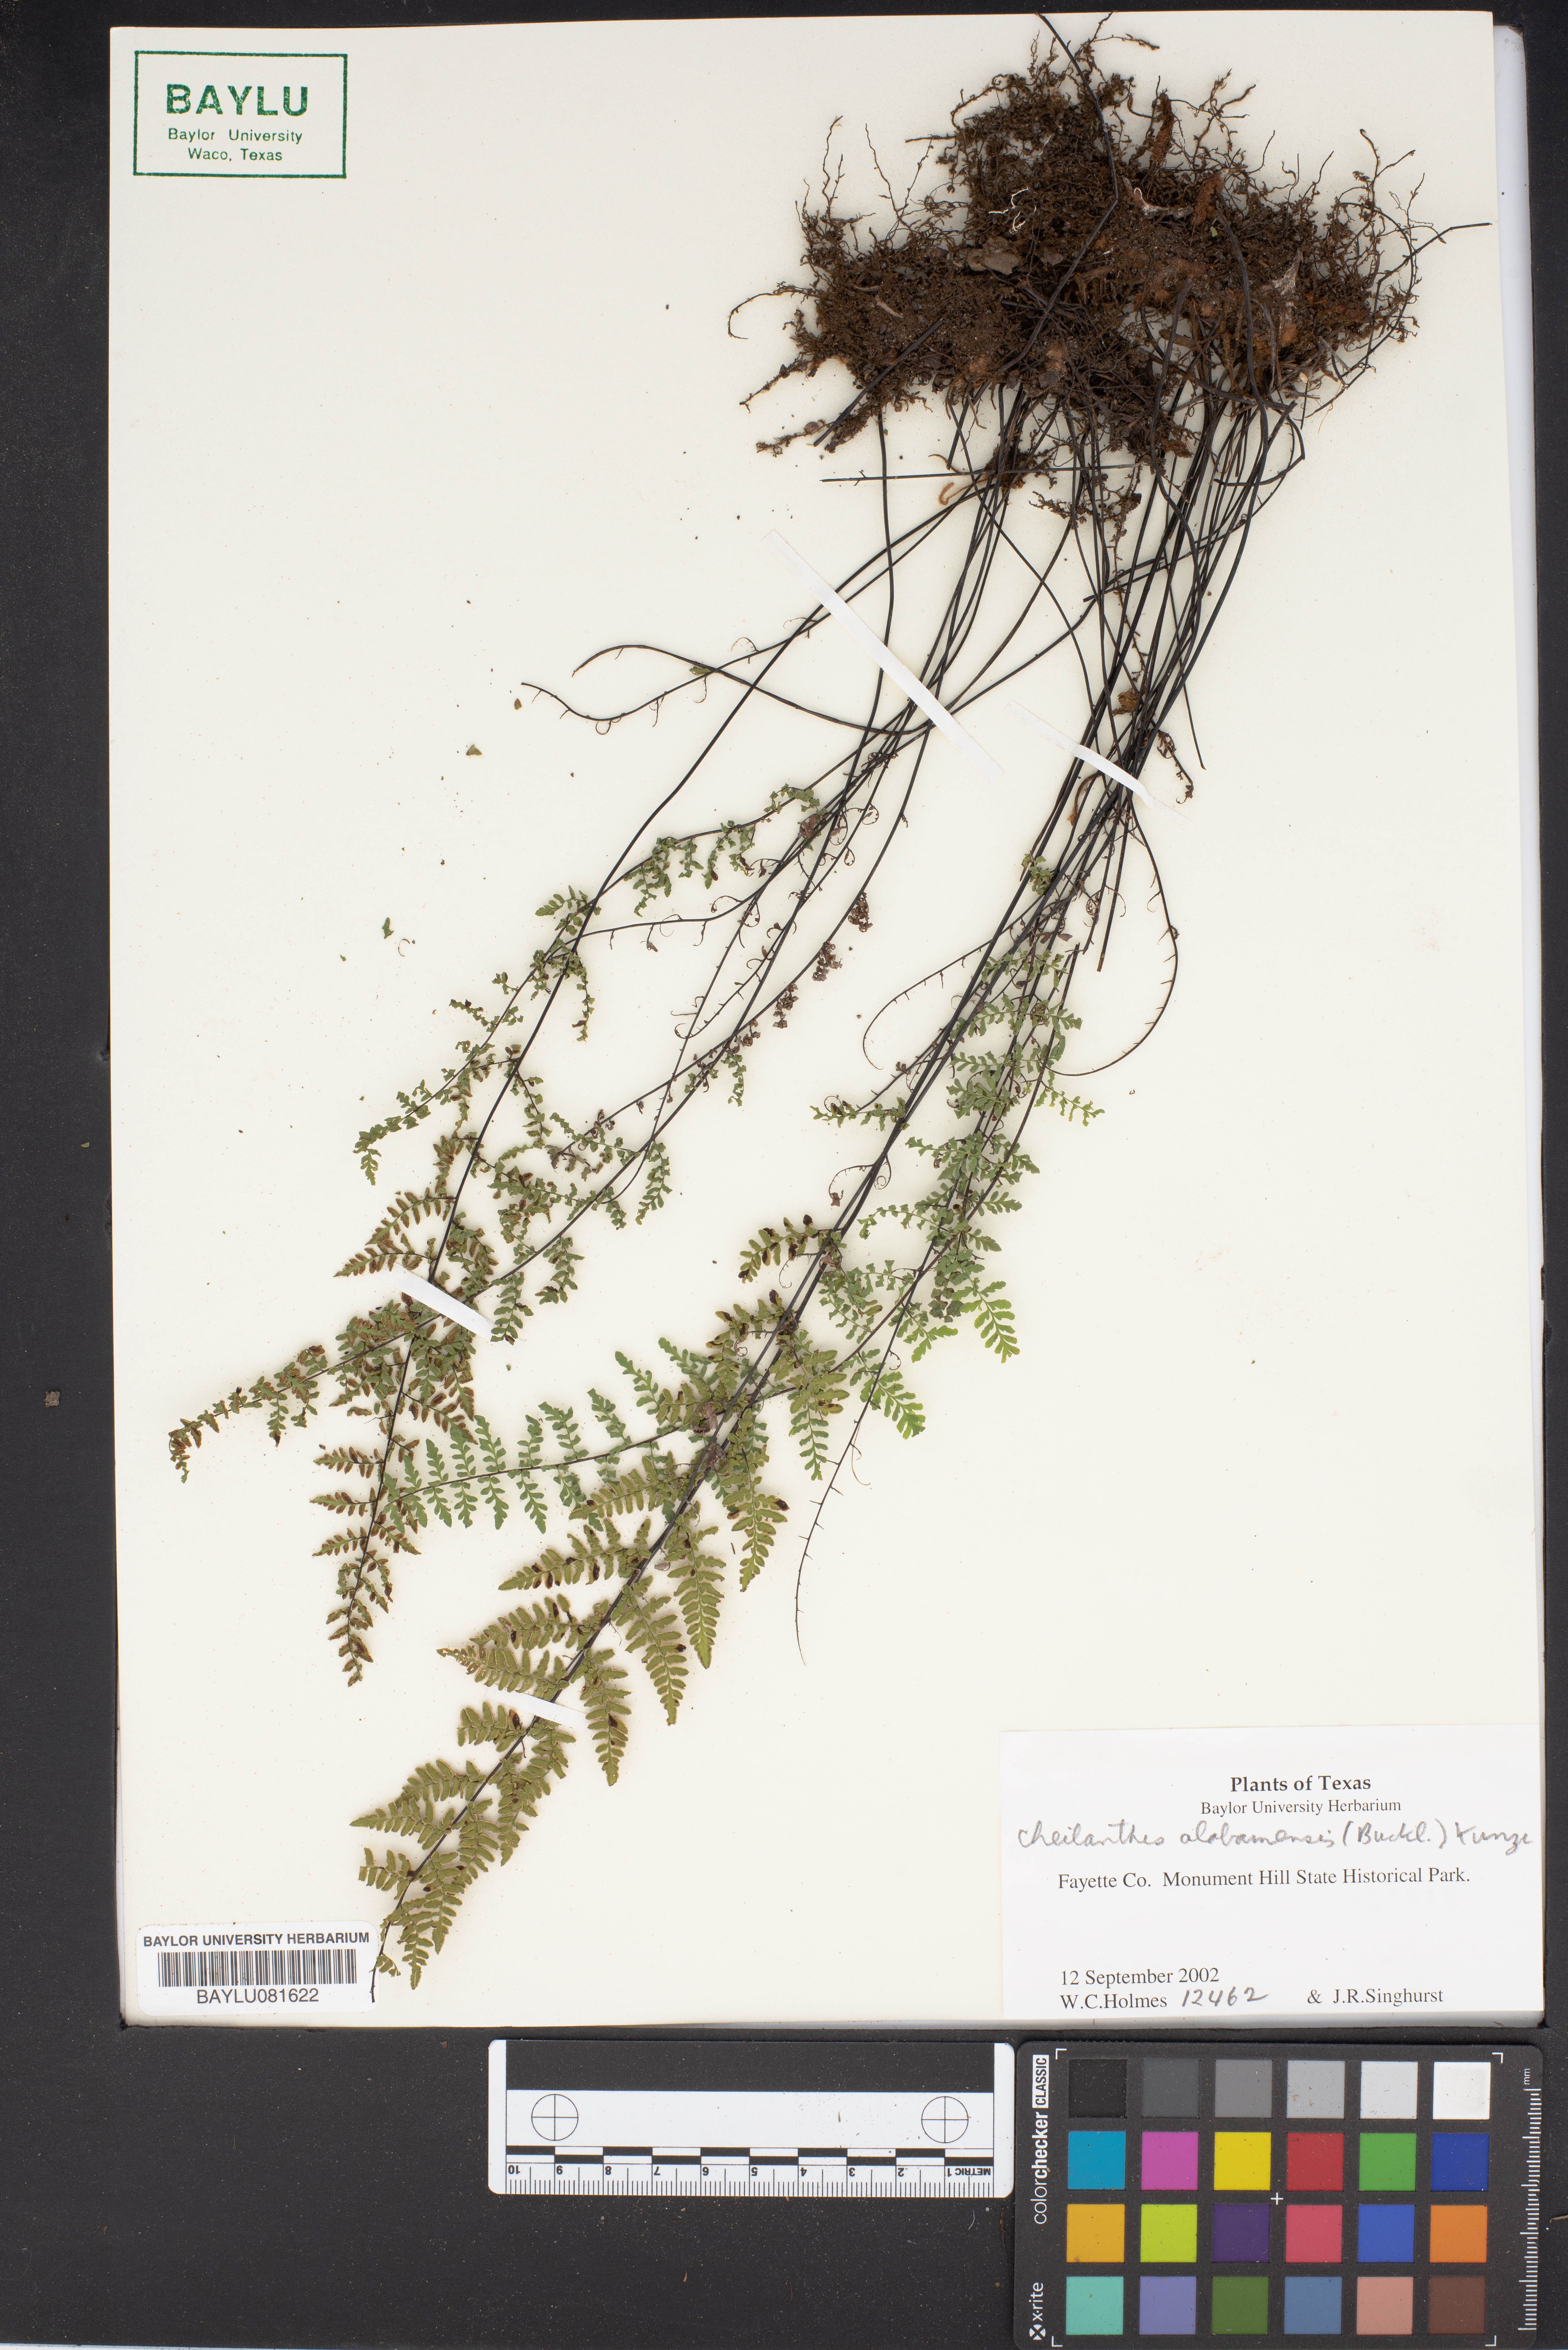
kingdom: Plantae
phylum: Tracheophyta
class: Polypodiopsida
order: Polypodiales
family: Pteridaceae
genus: Myriopteris
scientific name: Myriopteris alabamensis
